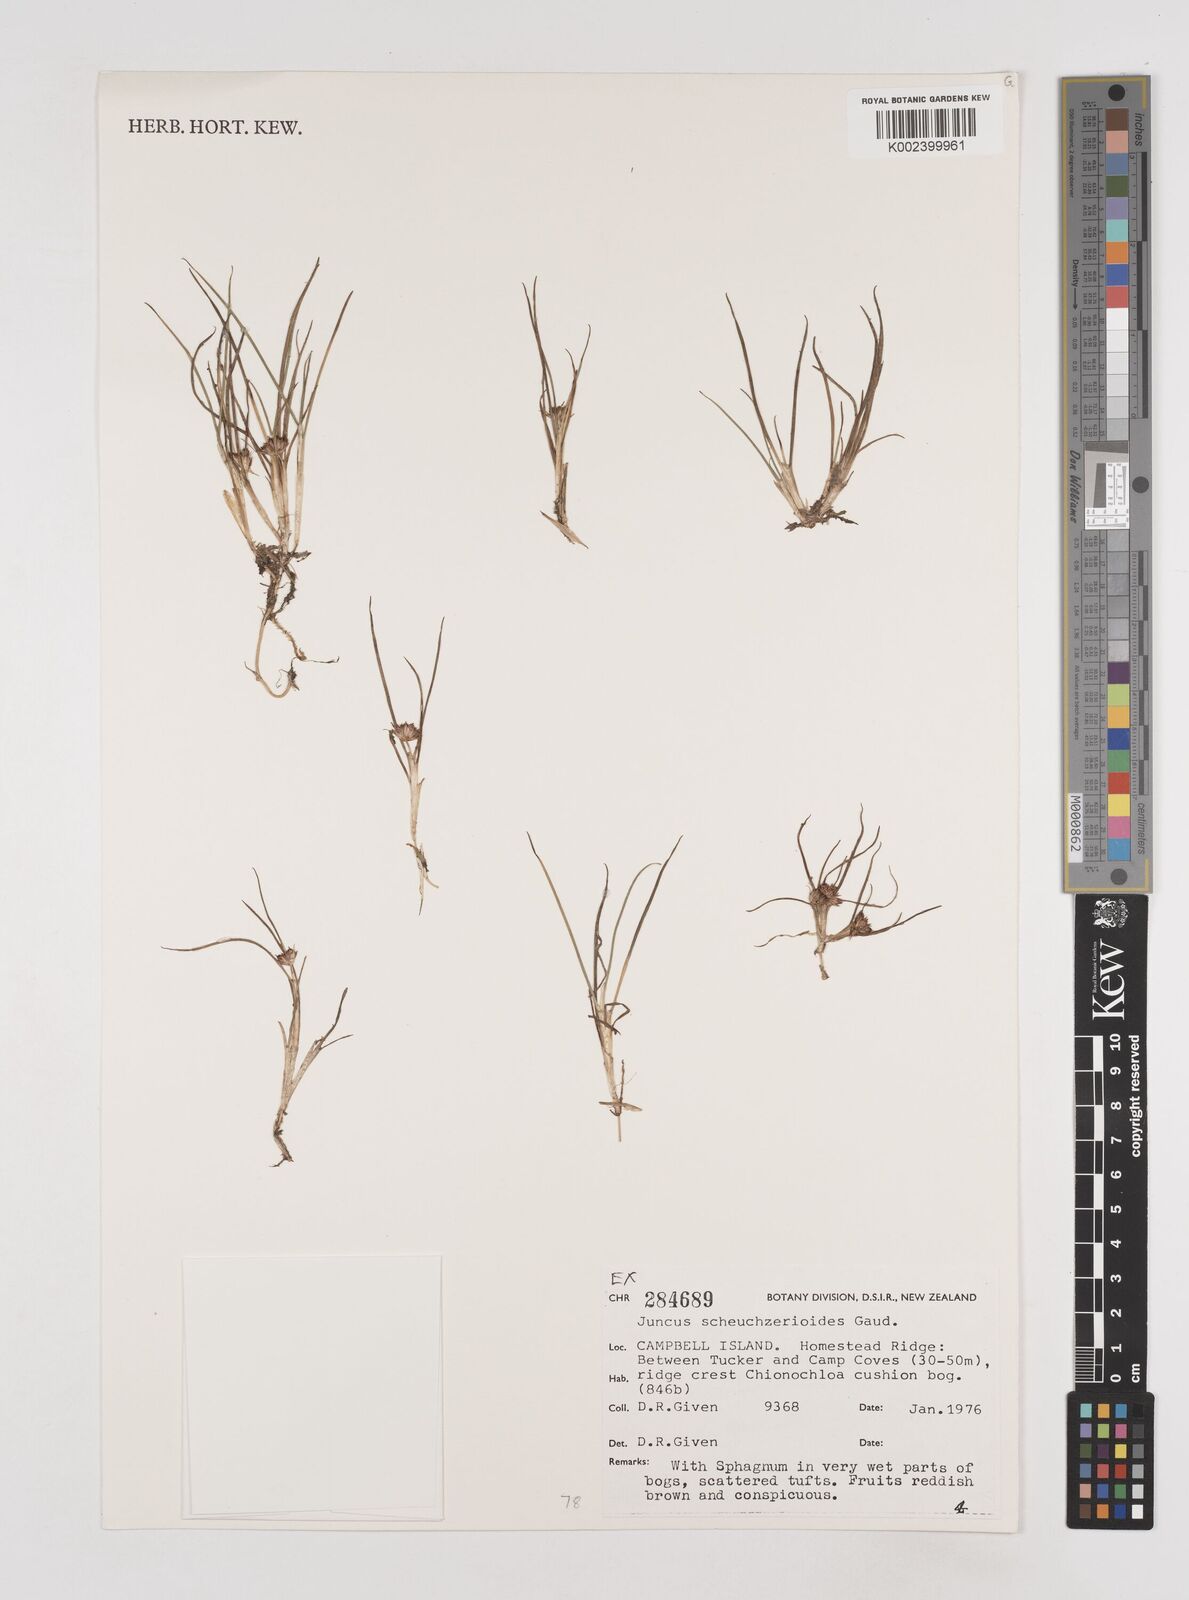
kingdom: Plantae
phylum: Tracheophyta
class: Liliopsida
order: Poales
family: Juncaceae
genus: Juncus
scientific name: Juncus scheuchzerioides
